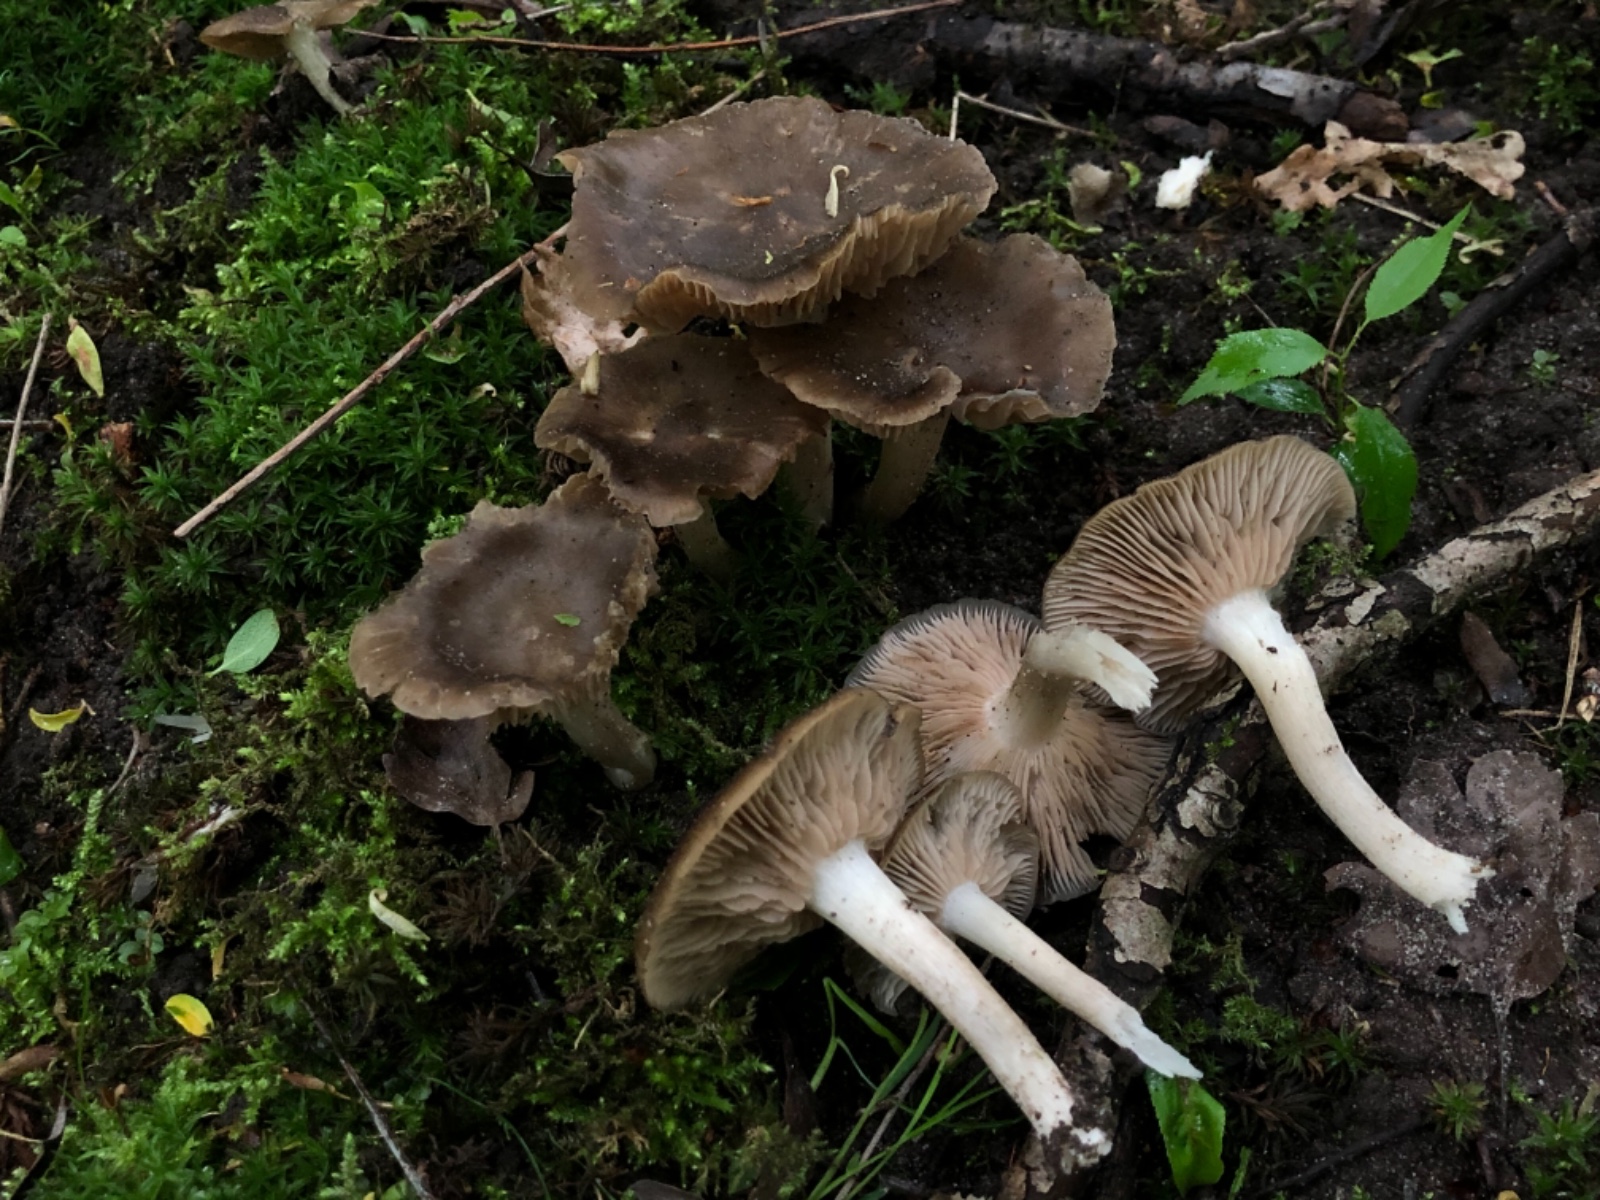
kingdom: Fungi
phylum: Basidiomycota
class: Agaricomycetes
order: Agaricales
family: Entolomataceae
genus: Entoloma
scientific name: Entoloma clypeatum
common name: Shield pinkgill
